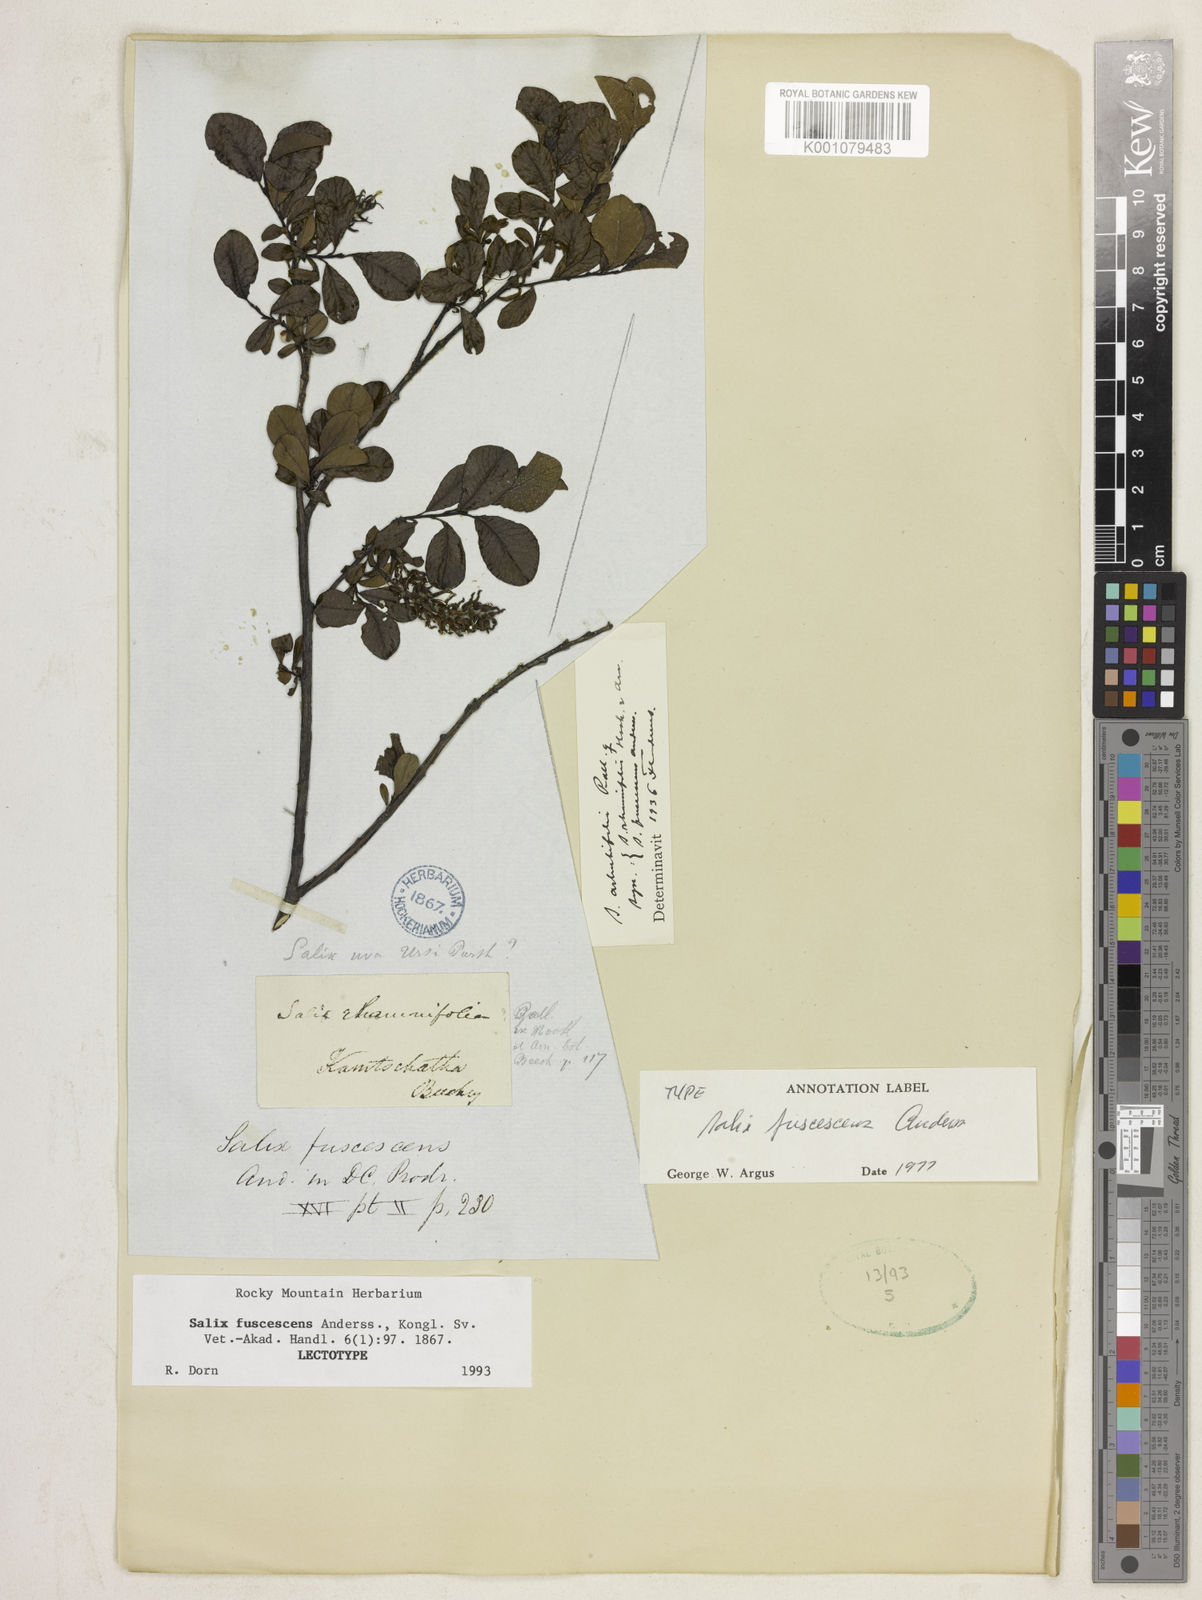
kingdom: Plantae
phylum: Tracheophyta
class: Magnoliopsida
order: Malpighiales
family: Salicaceae
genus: Salix
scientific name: Salix fuscescens
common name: Brownish willow
